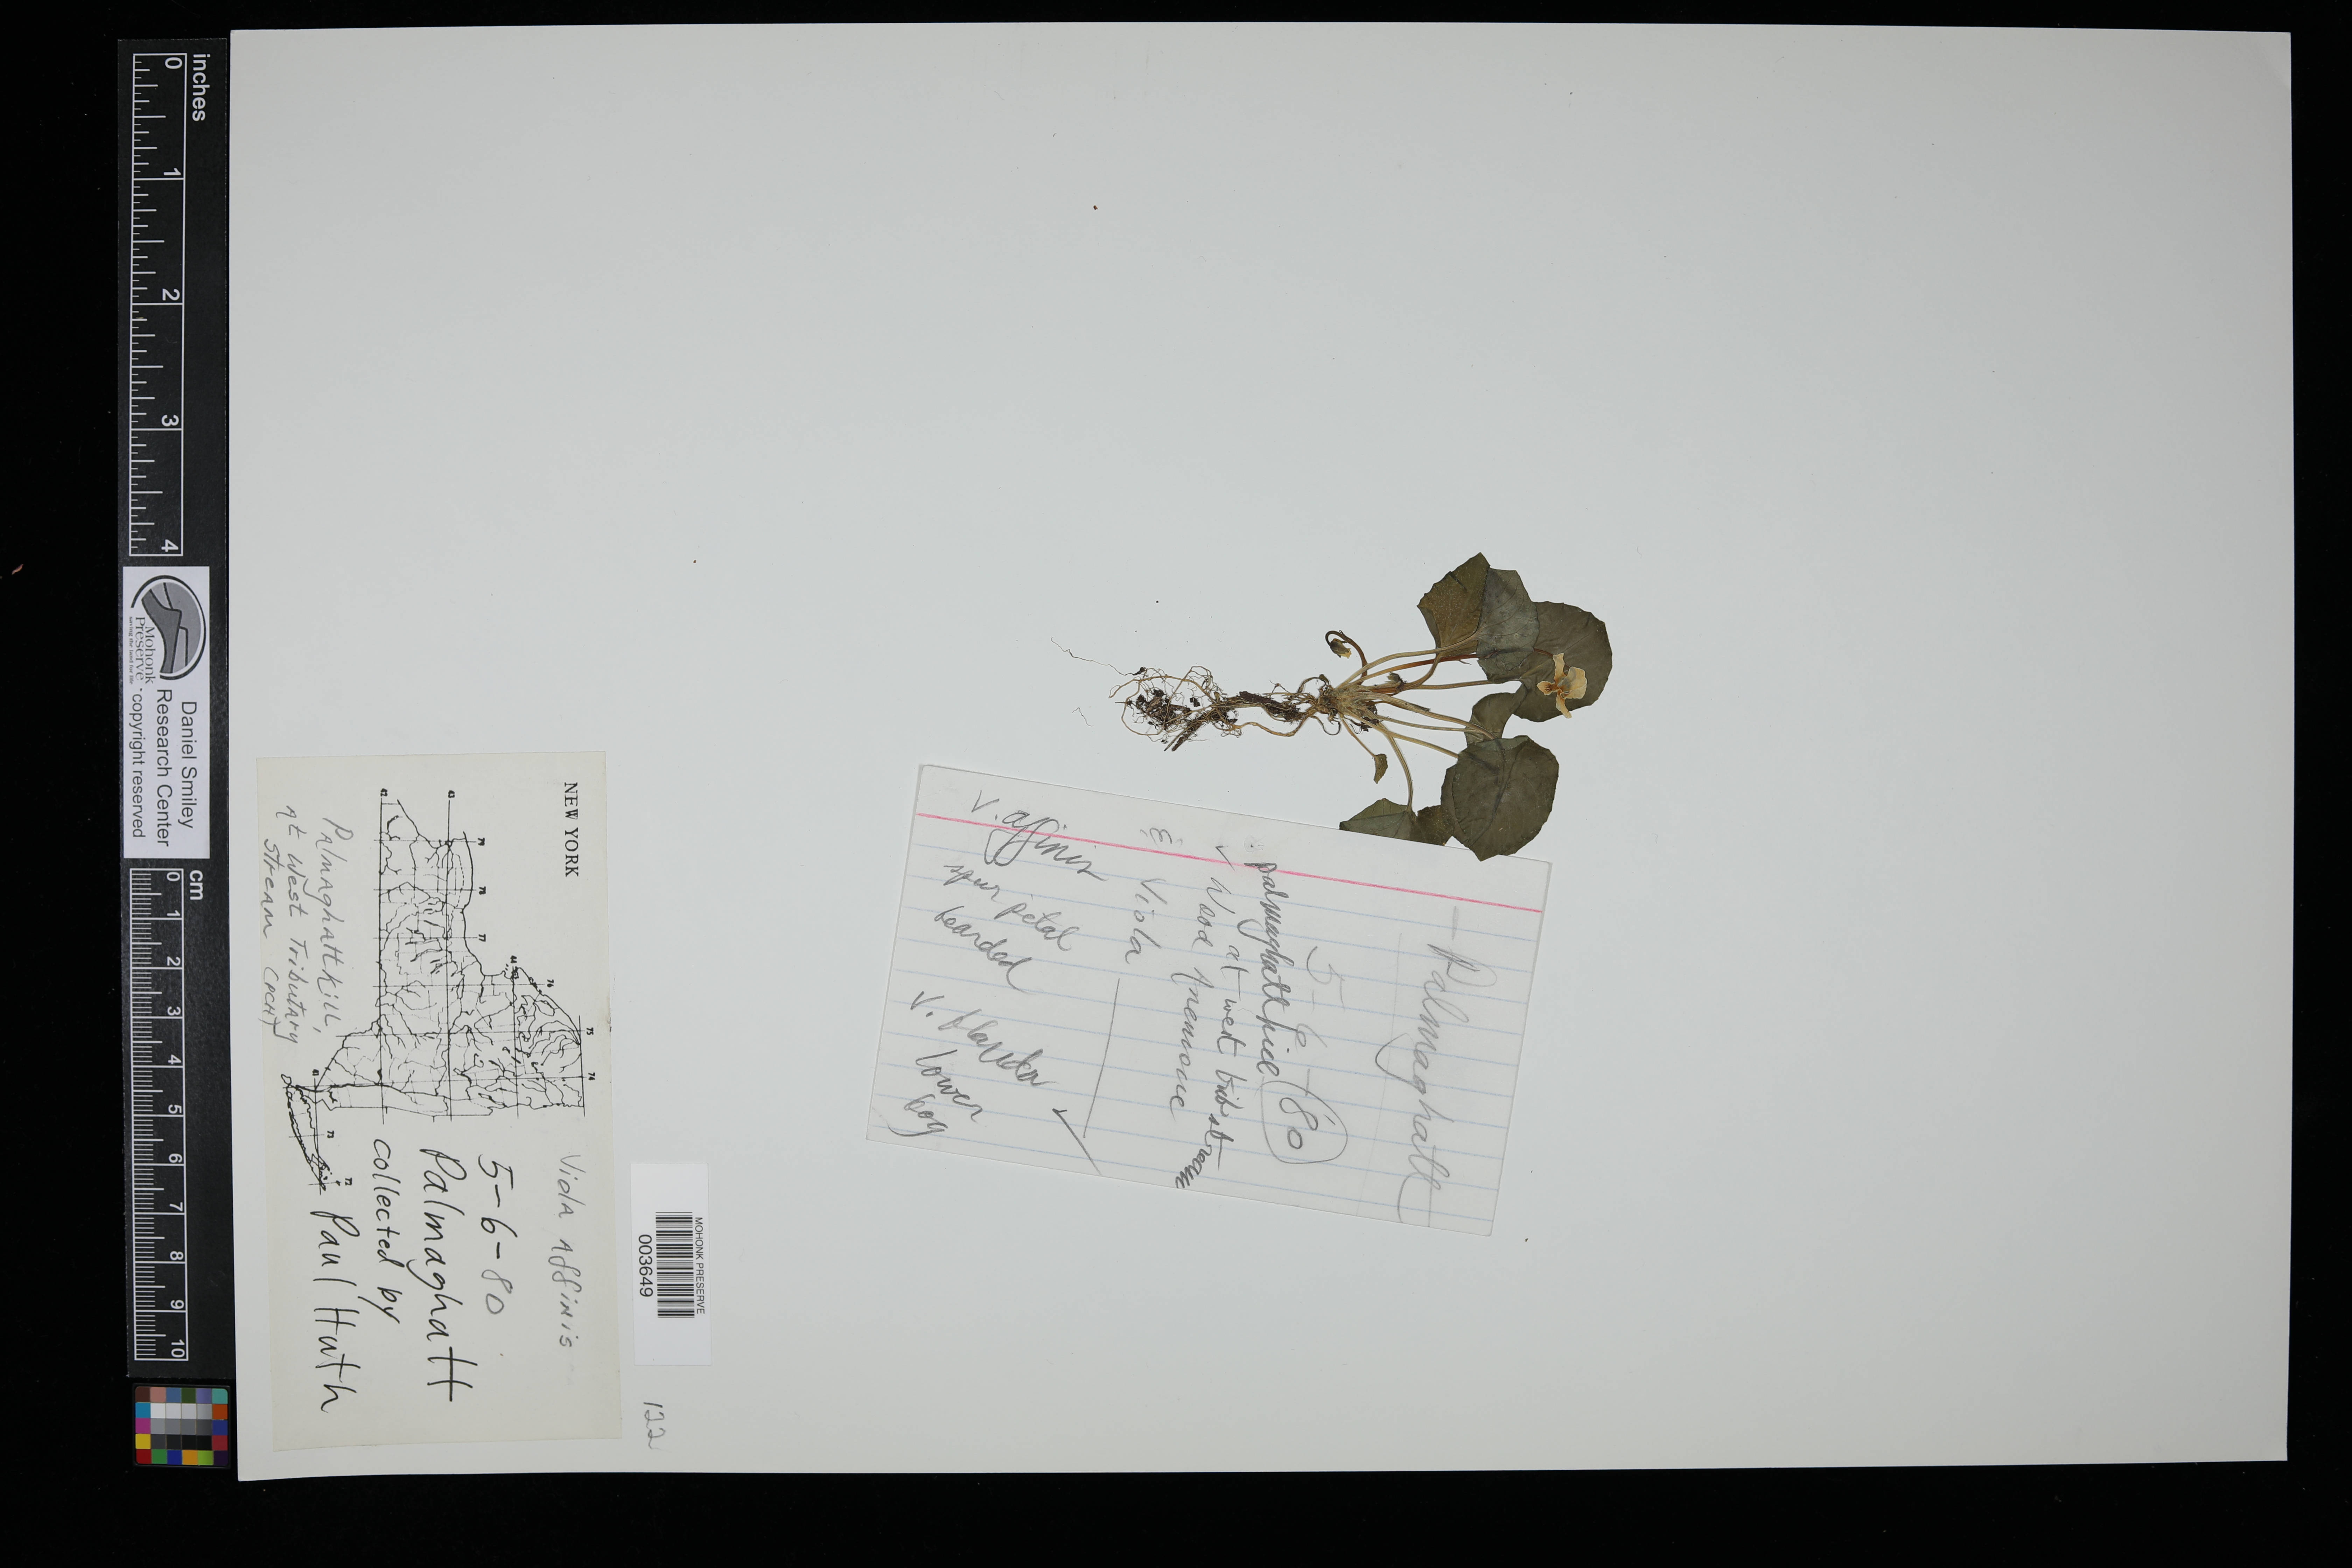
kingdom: Plantae
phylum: Tracheophyta
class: Magnoliopsida
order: Malpighiales
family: Violaceae
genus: Viola
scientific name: Viola missouriensis
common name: Missouri violet
